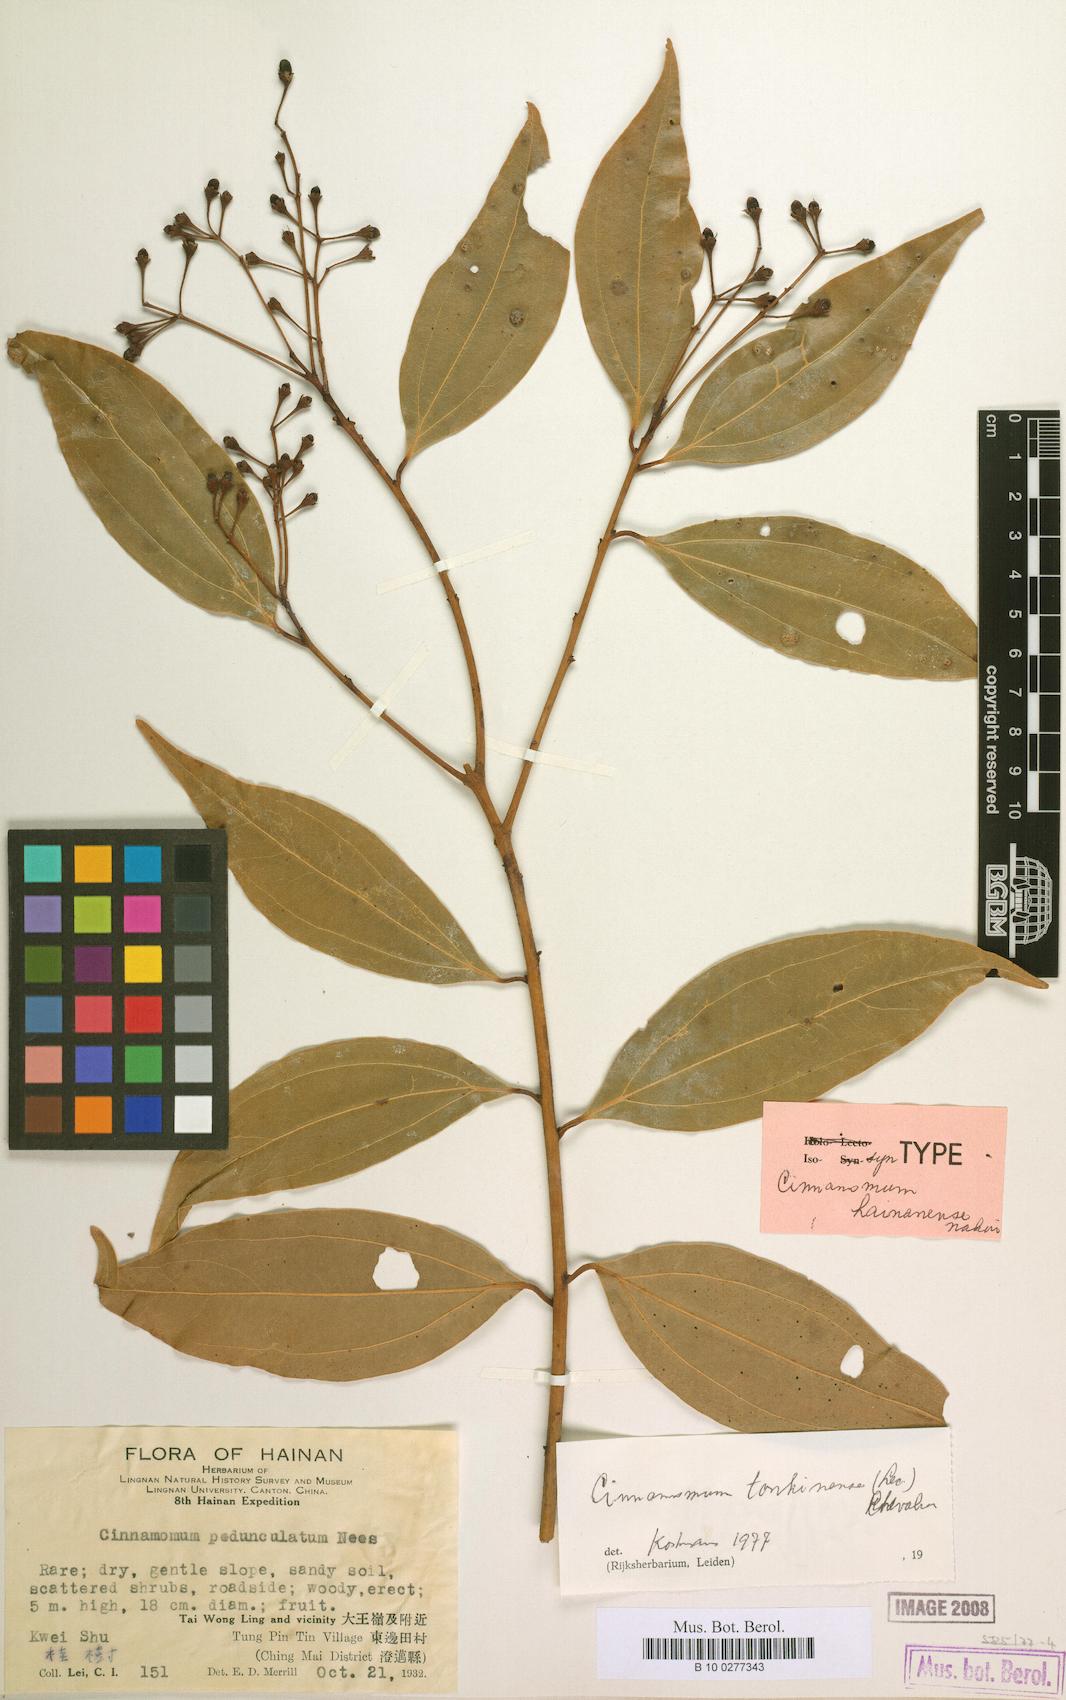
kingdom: Plantae
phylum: Tracheophyta
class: Magnoliopsida
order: Laurales
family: Lauraceae
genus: Cinnamomum
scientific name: Cinnamomum curvifolium
